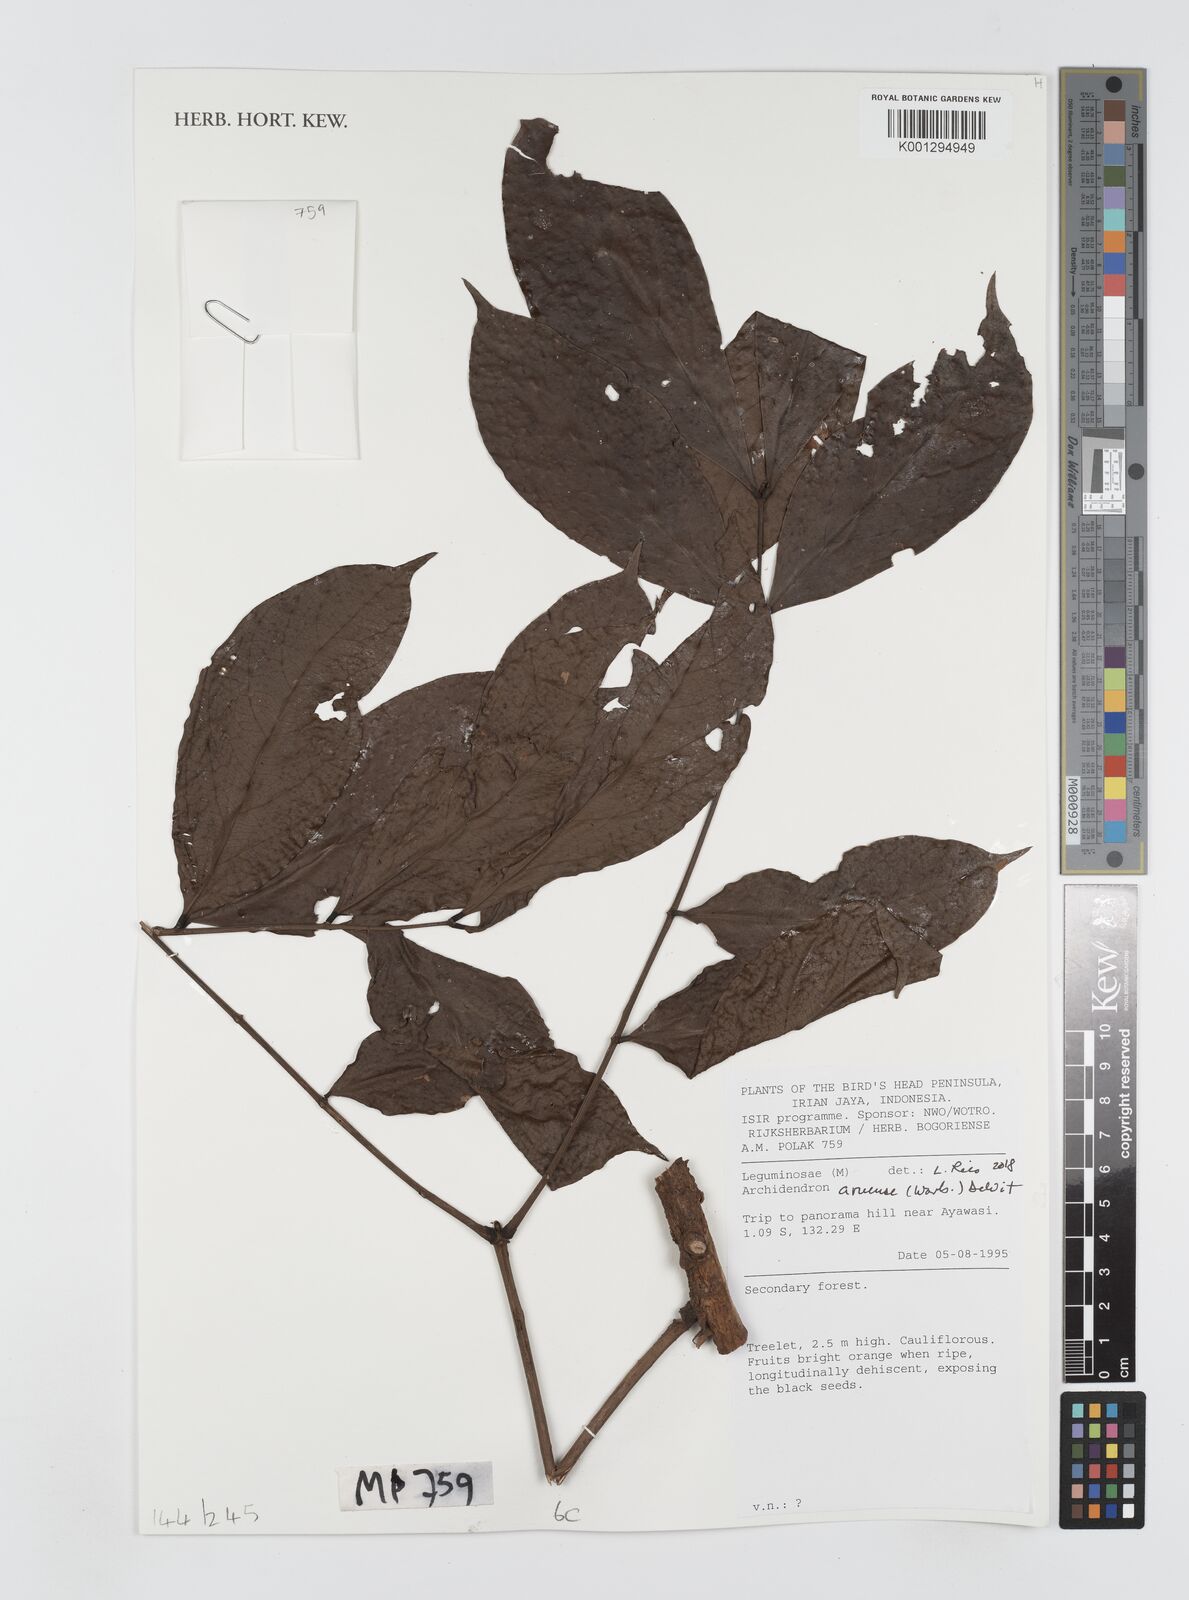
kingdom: Plantae
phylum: Tracheophyta
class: Magnoliopsida
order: Fabales
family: Fabaceae
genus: Archidendron
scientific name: Archidendron aruense
